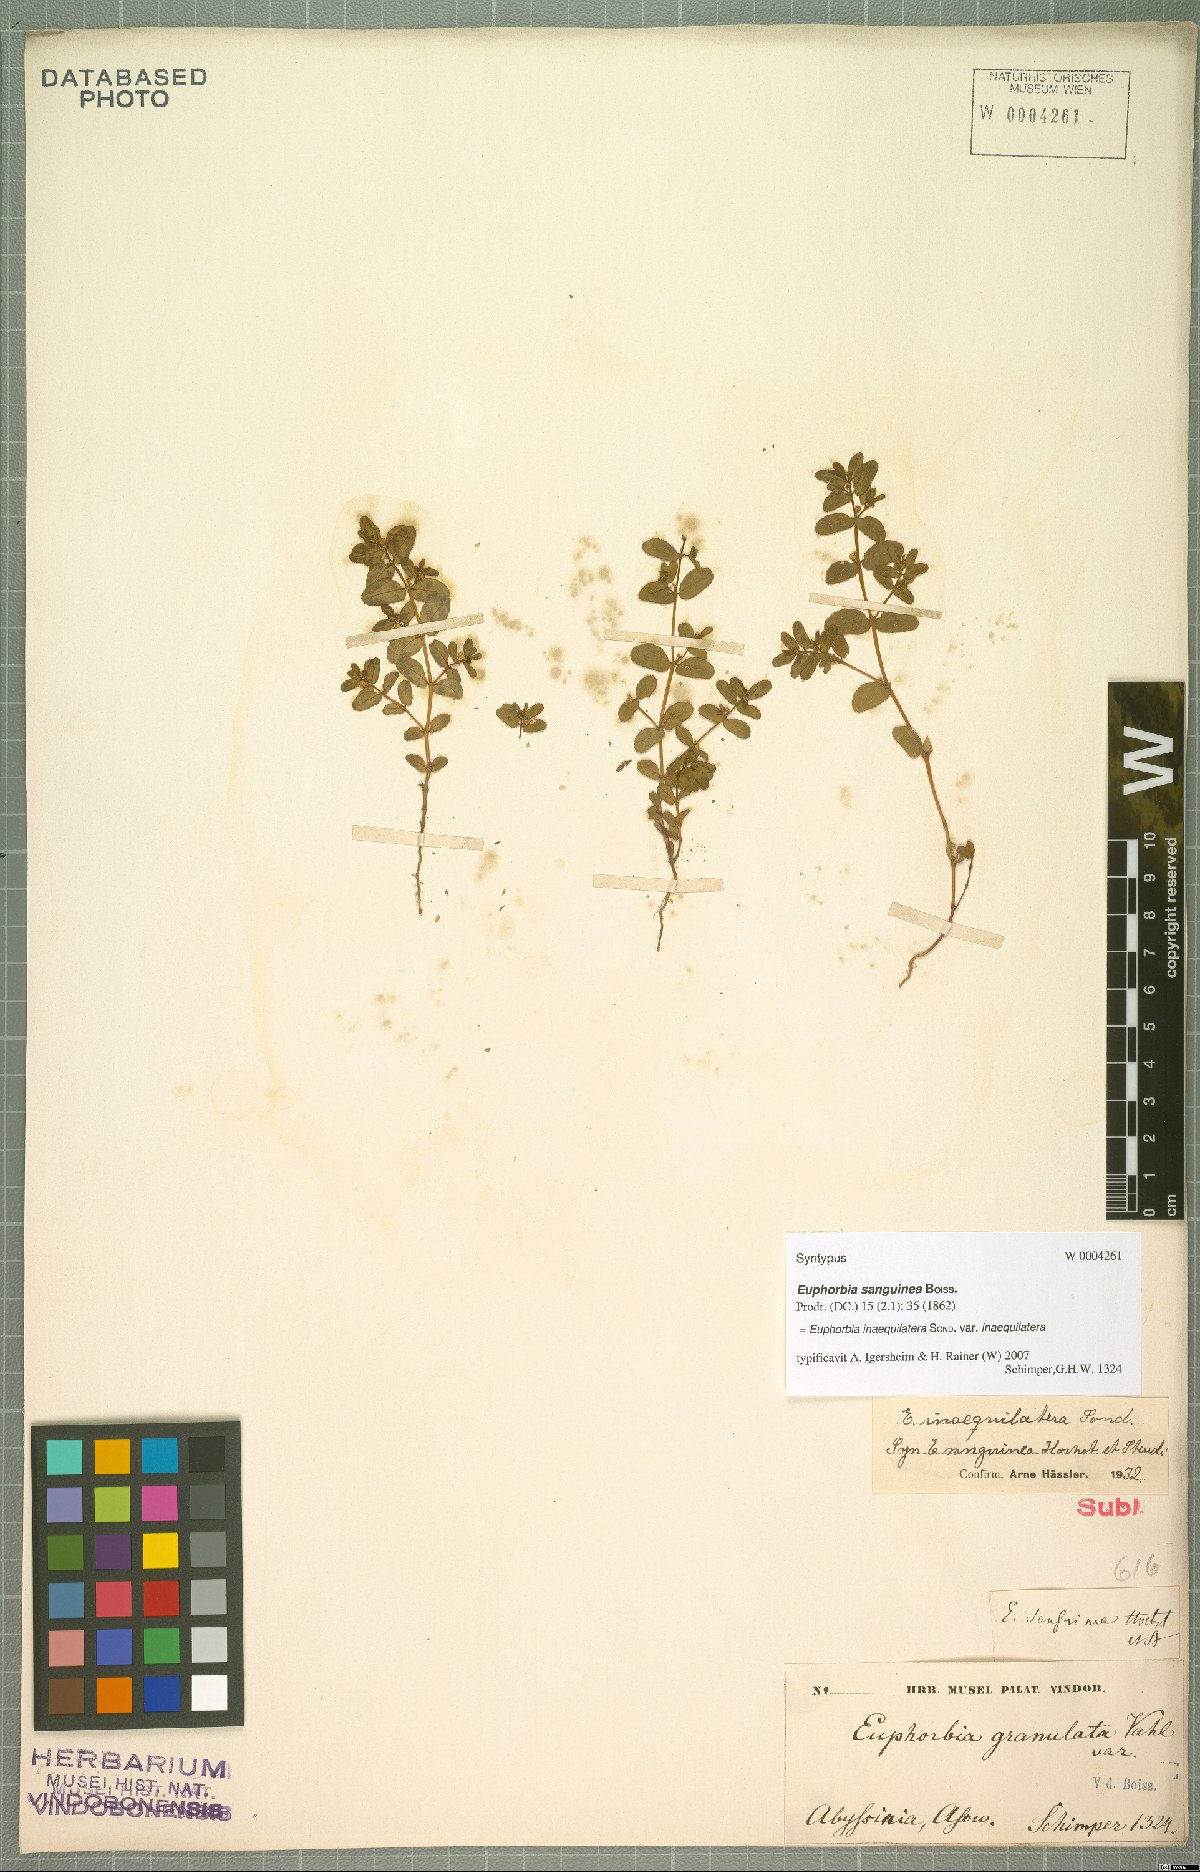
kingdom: Plantae
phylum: Tracheophyta
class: Magnoliopsida
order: Malpighiales
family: Euphorbiaceae
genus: Euphorbia
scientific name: Euphorbia inaequilatera
